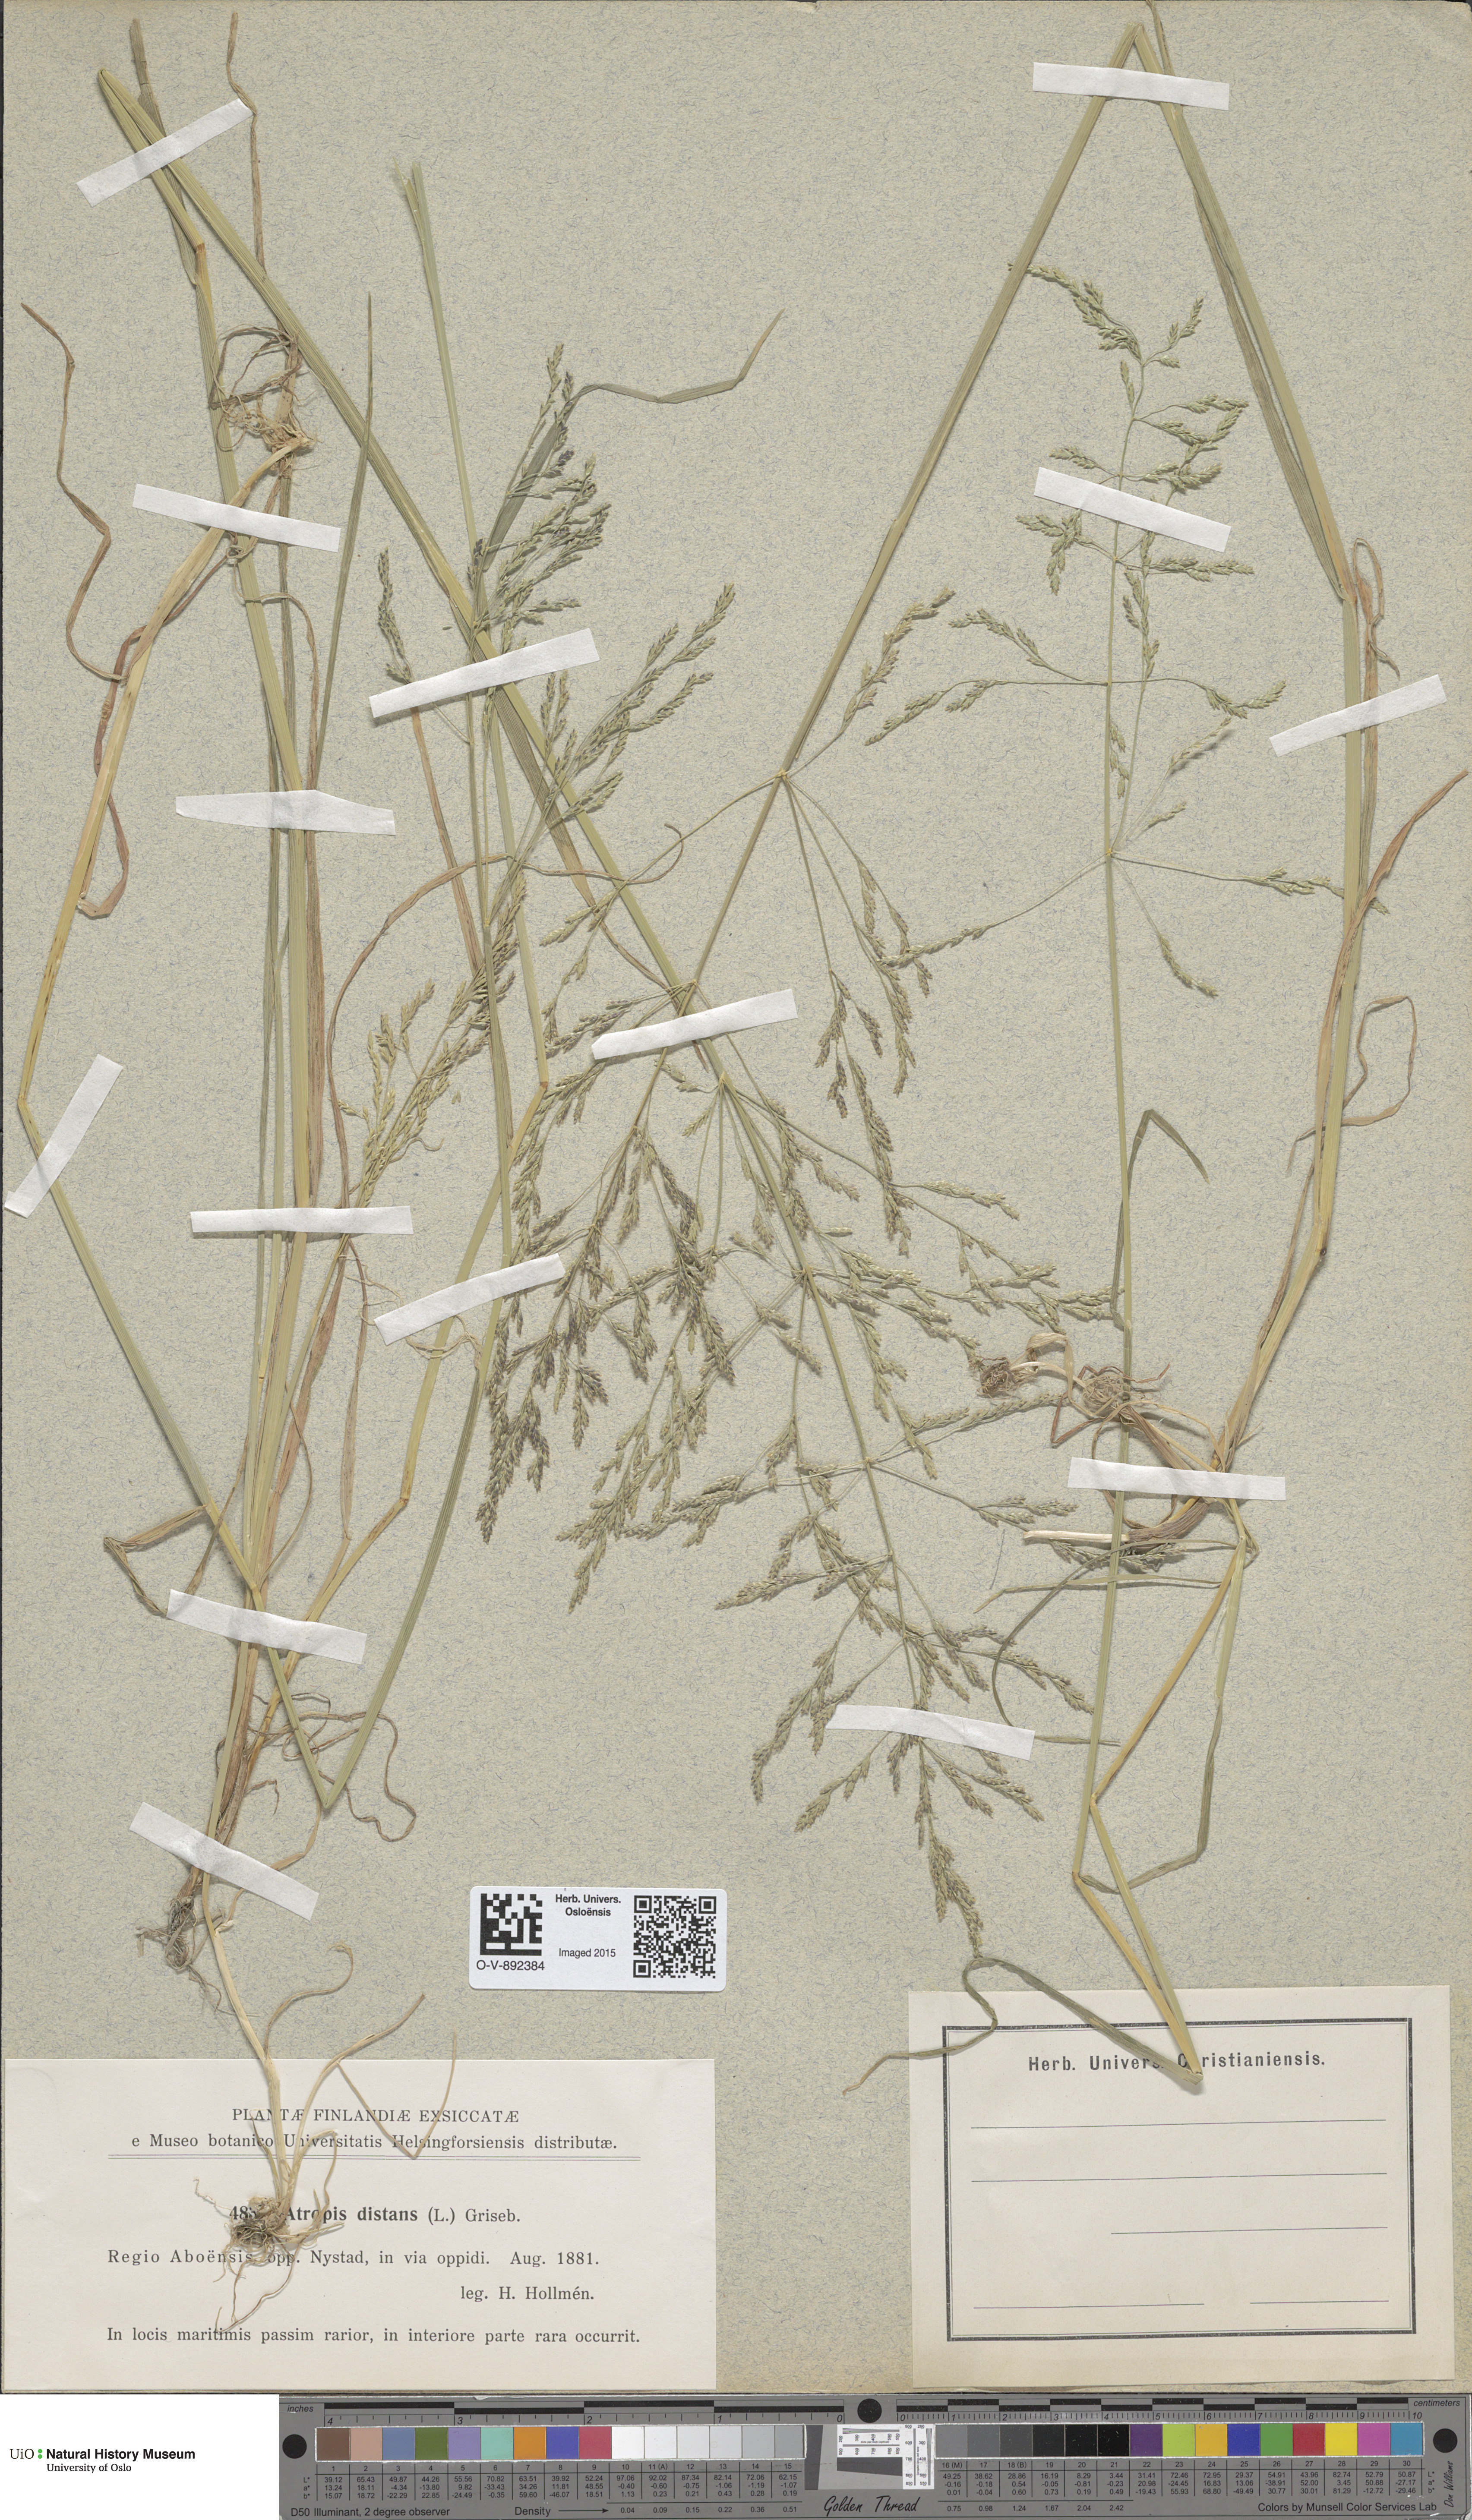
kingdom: Plantae
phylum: Tracheophyta
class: Liliopsida
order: Poales
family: Poaceae
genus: Puccinellia
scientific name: Puccinellia distans
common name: Weeping alkaligrass
